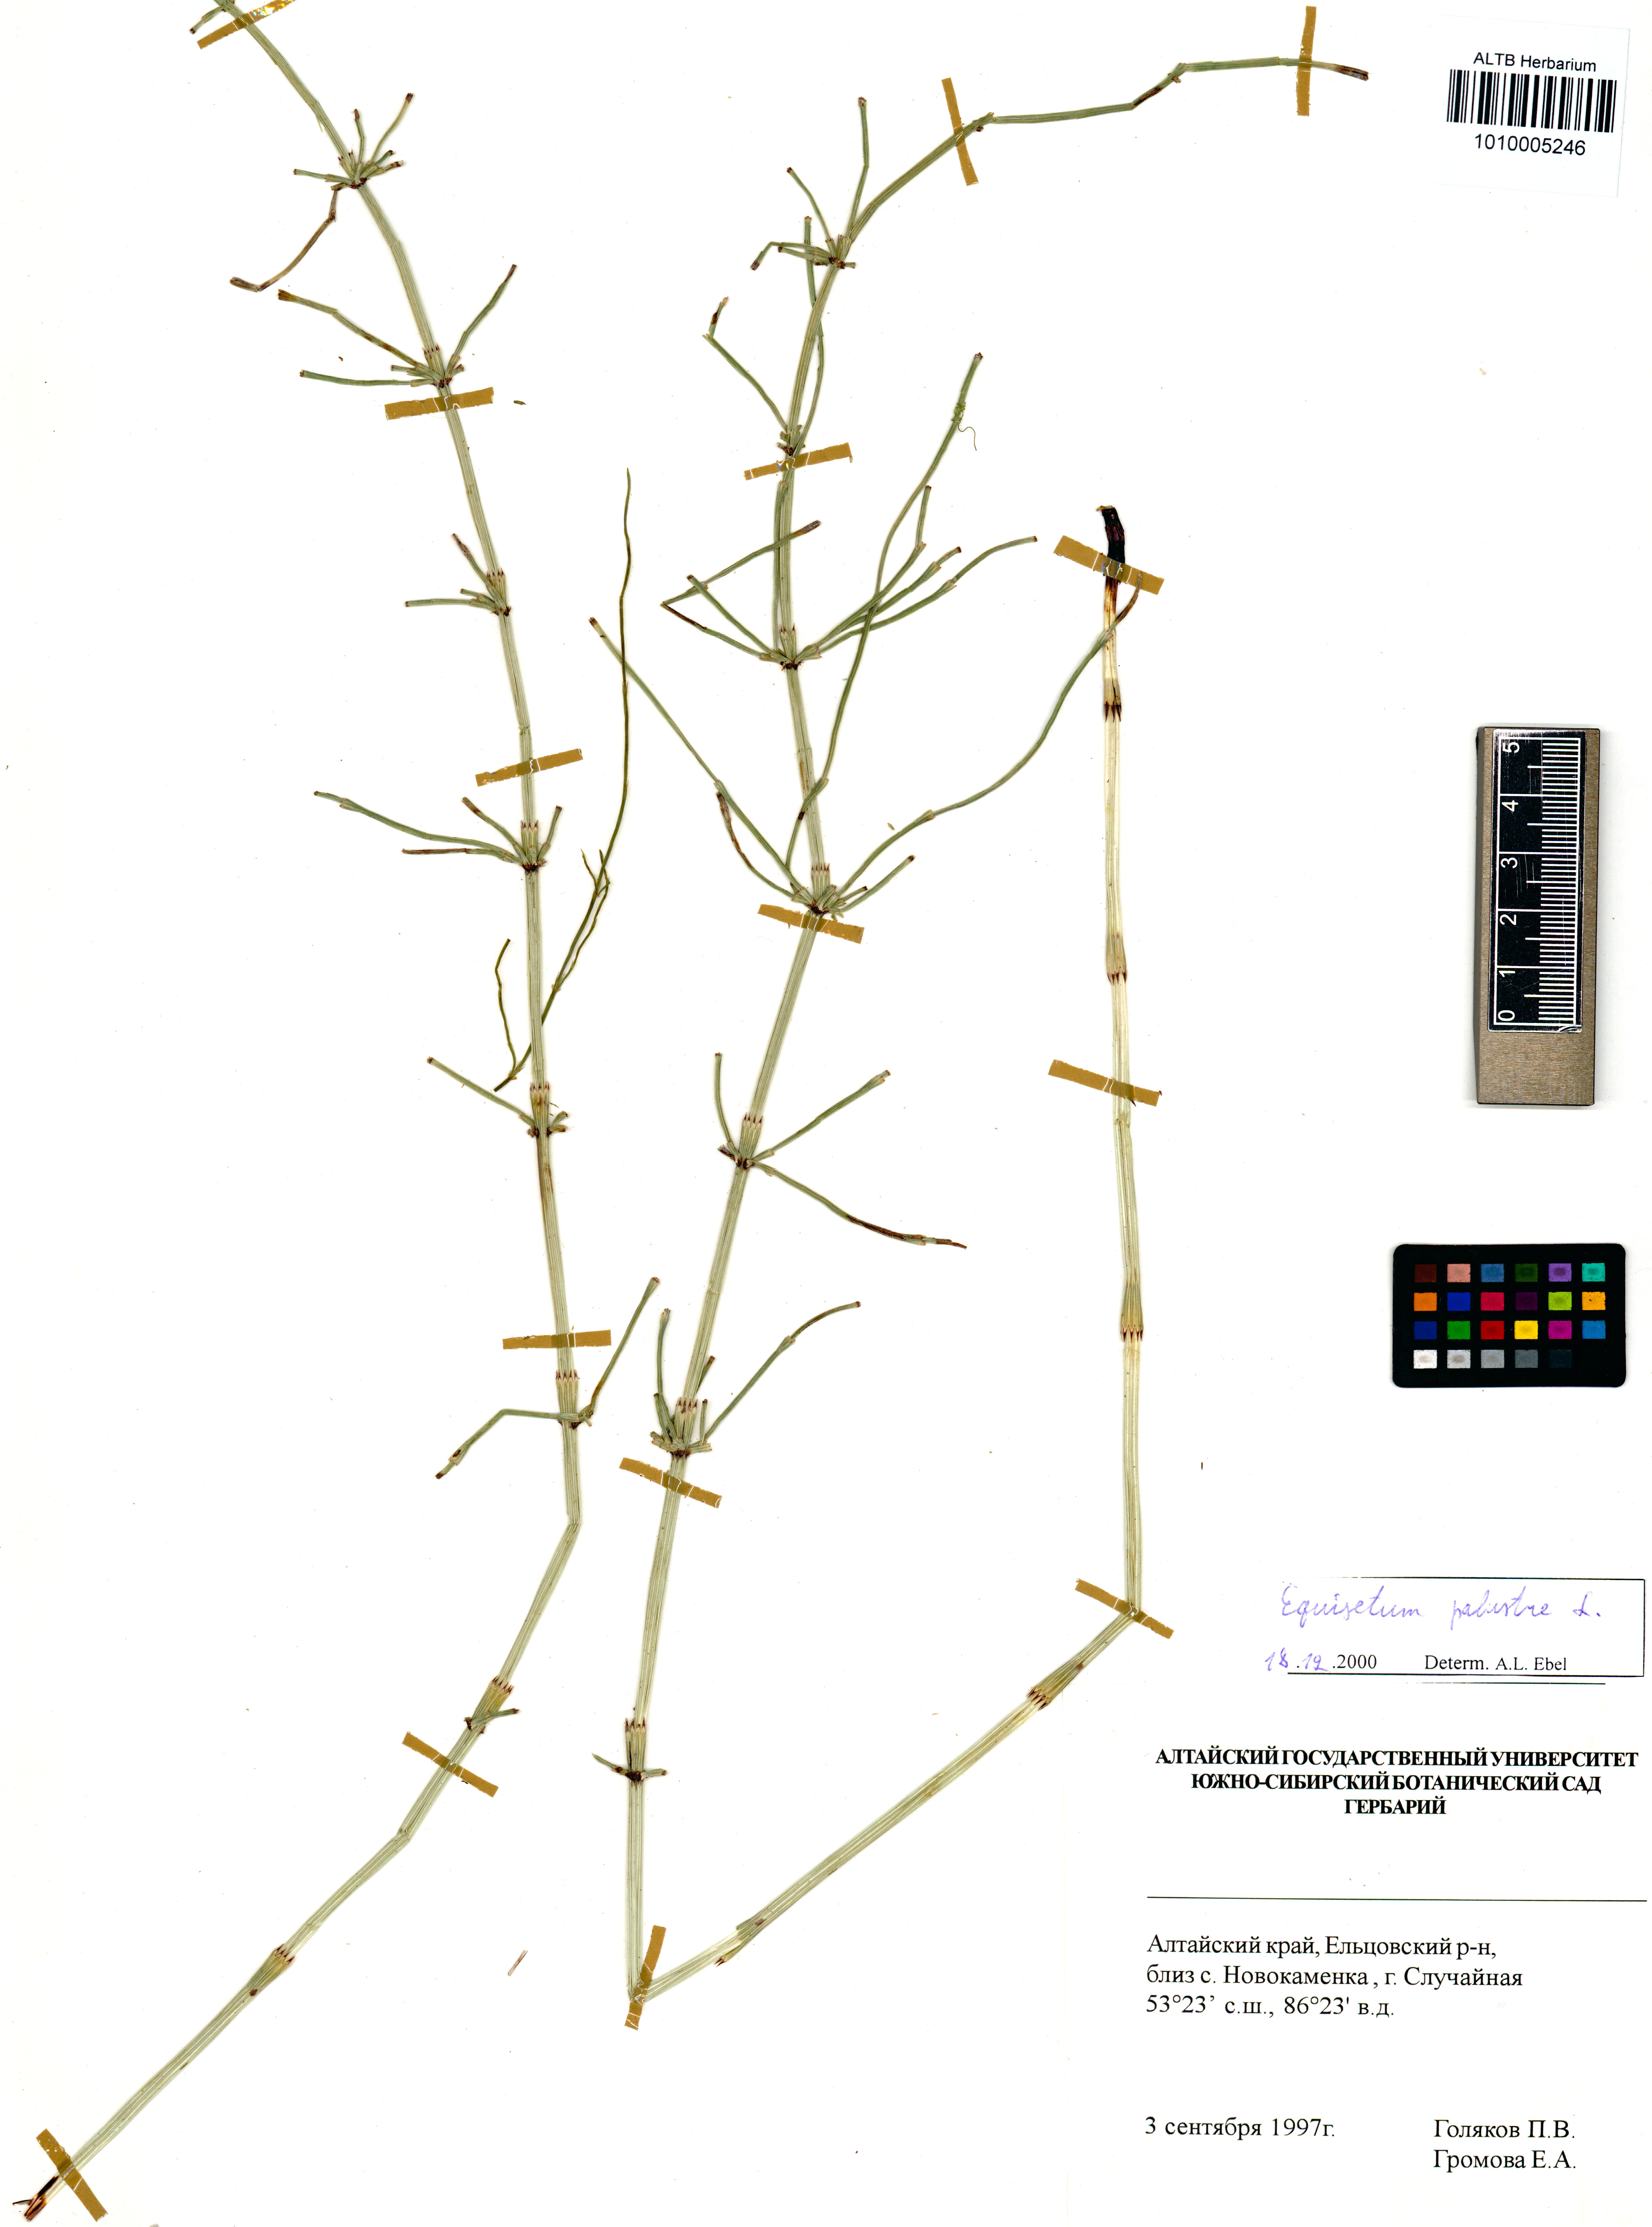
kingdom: Plantae
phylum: Tracheophyta
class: Polypodiopsida
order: Equisetales
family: Equisetaceae
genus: Equisetum
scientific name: Equisetum palustre
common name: Marsh horsetail
